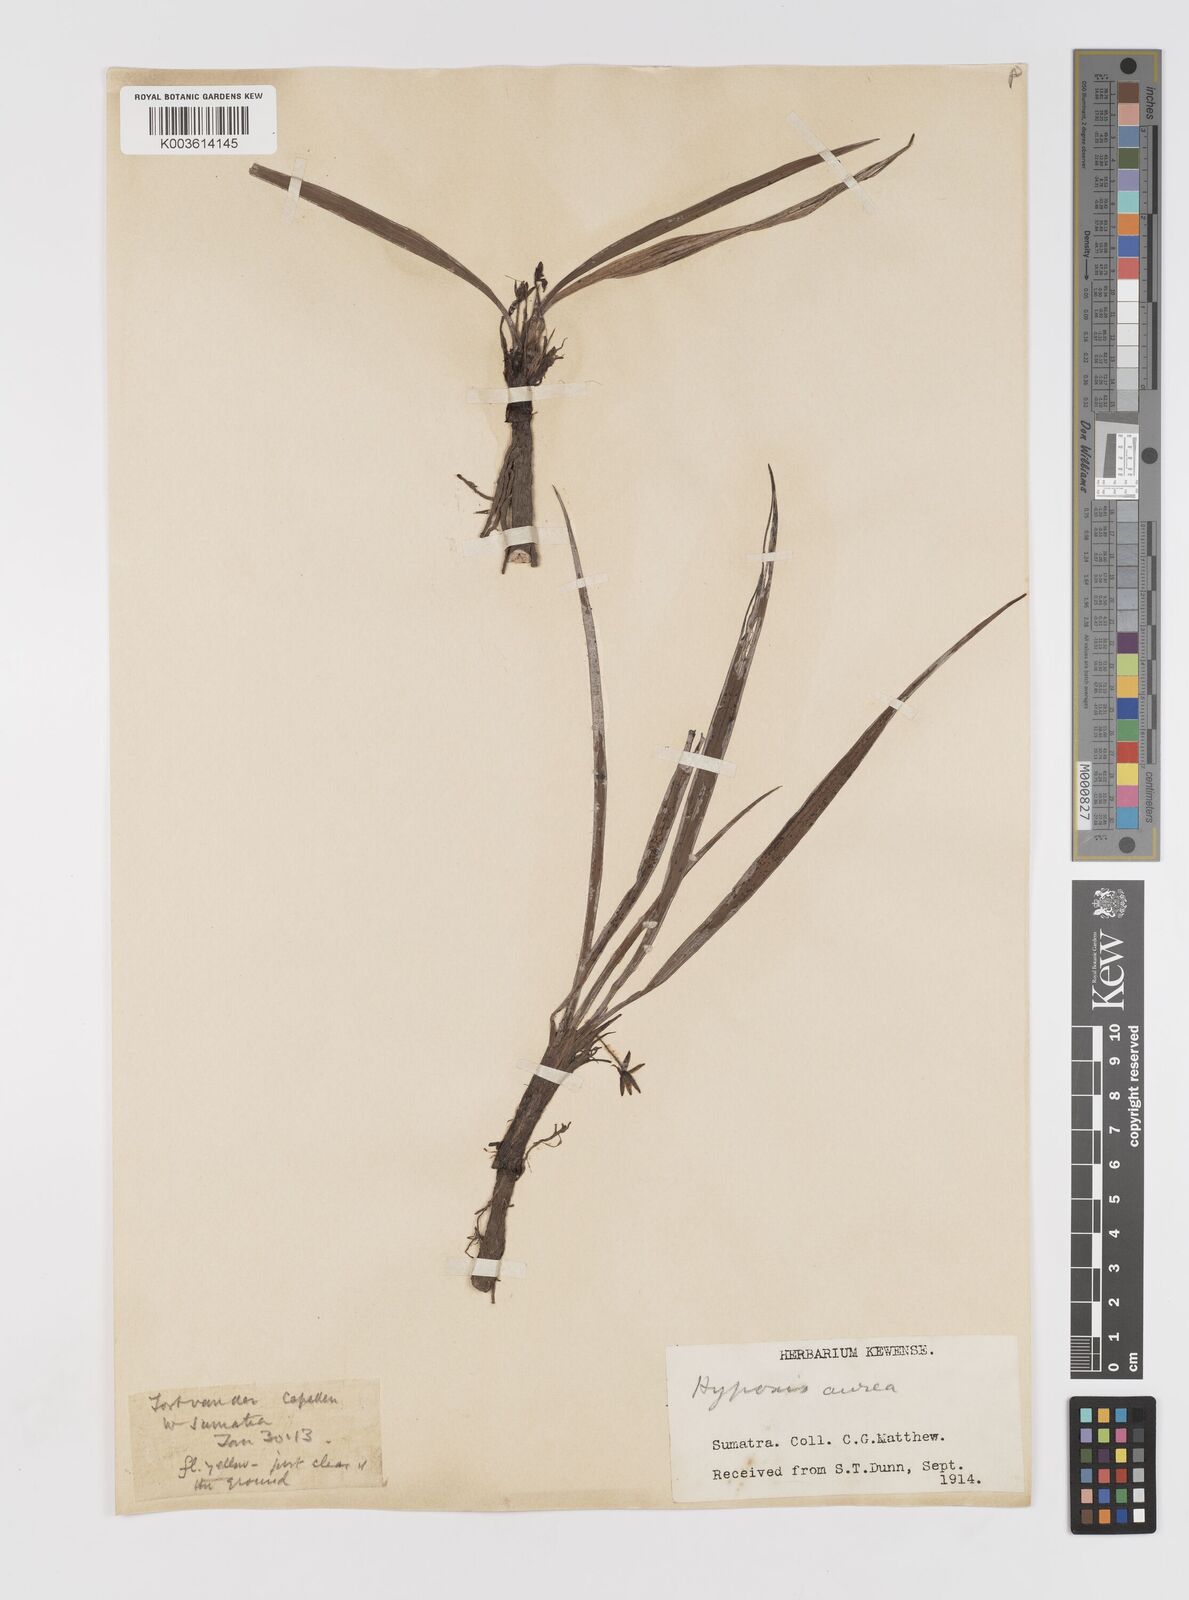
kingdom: Plantae
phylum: Tracheophyta
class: Liliopsida
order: Asparagales
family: Hypoxidaceae
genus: Curculigo
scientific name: Curculigo orchioides
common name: Golden eye-grass
